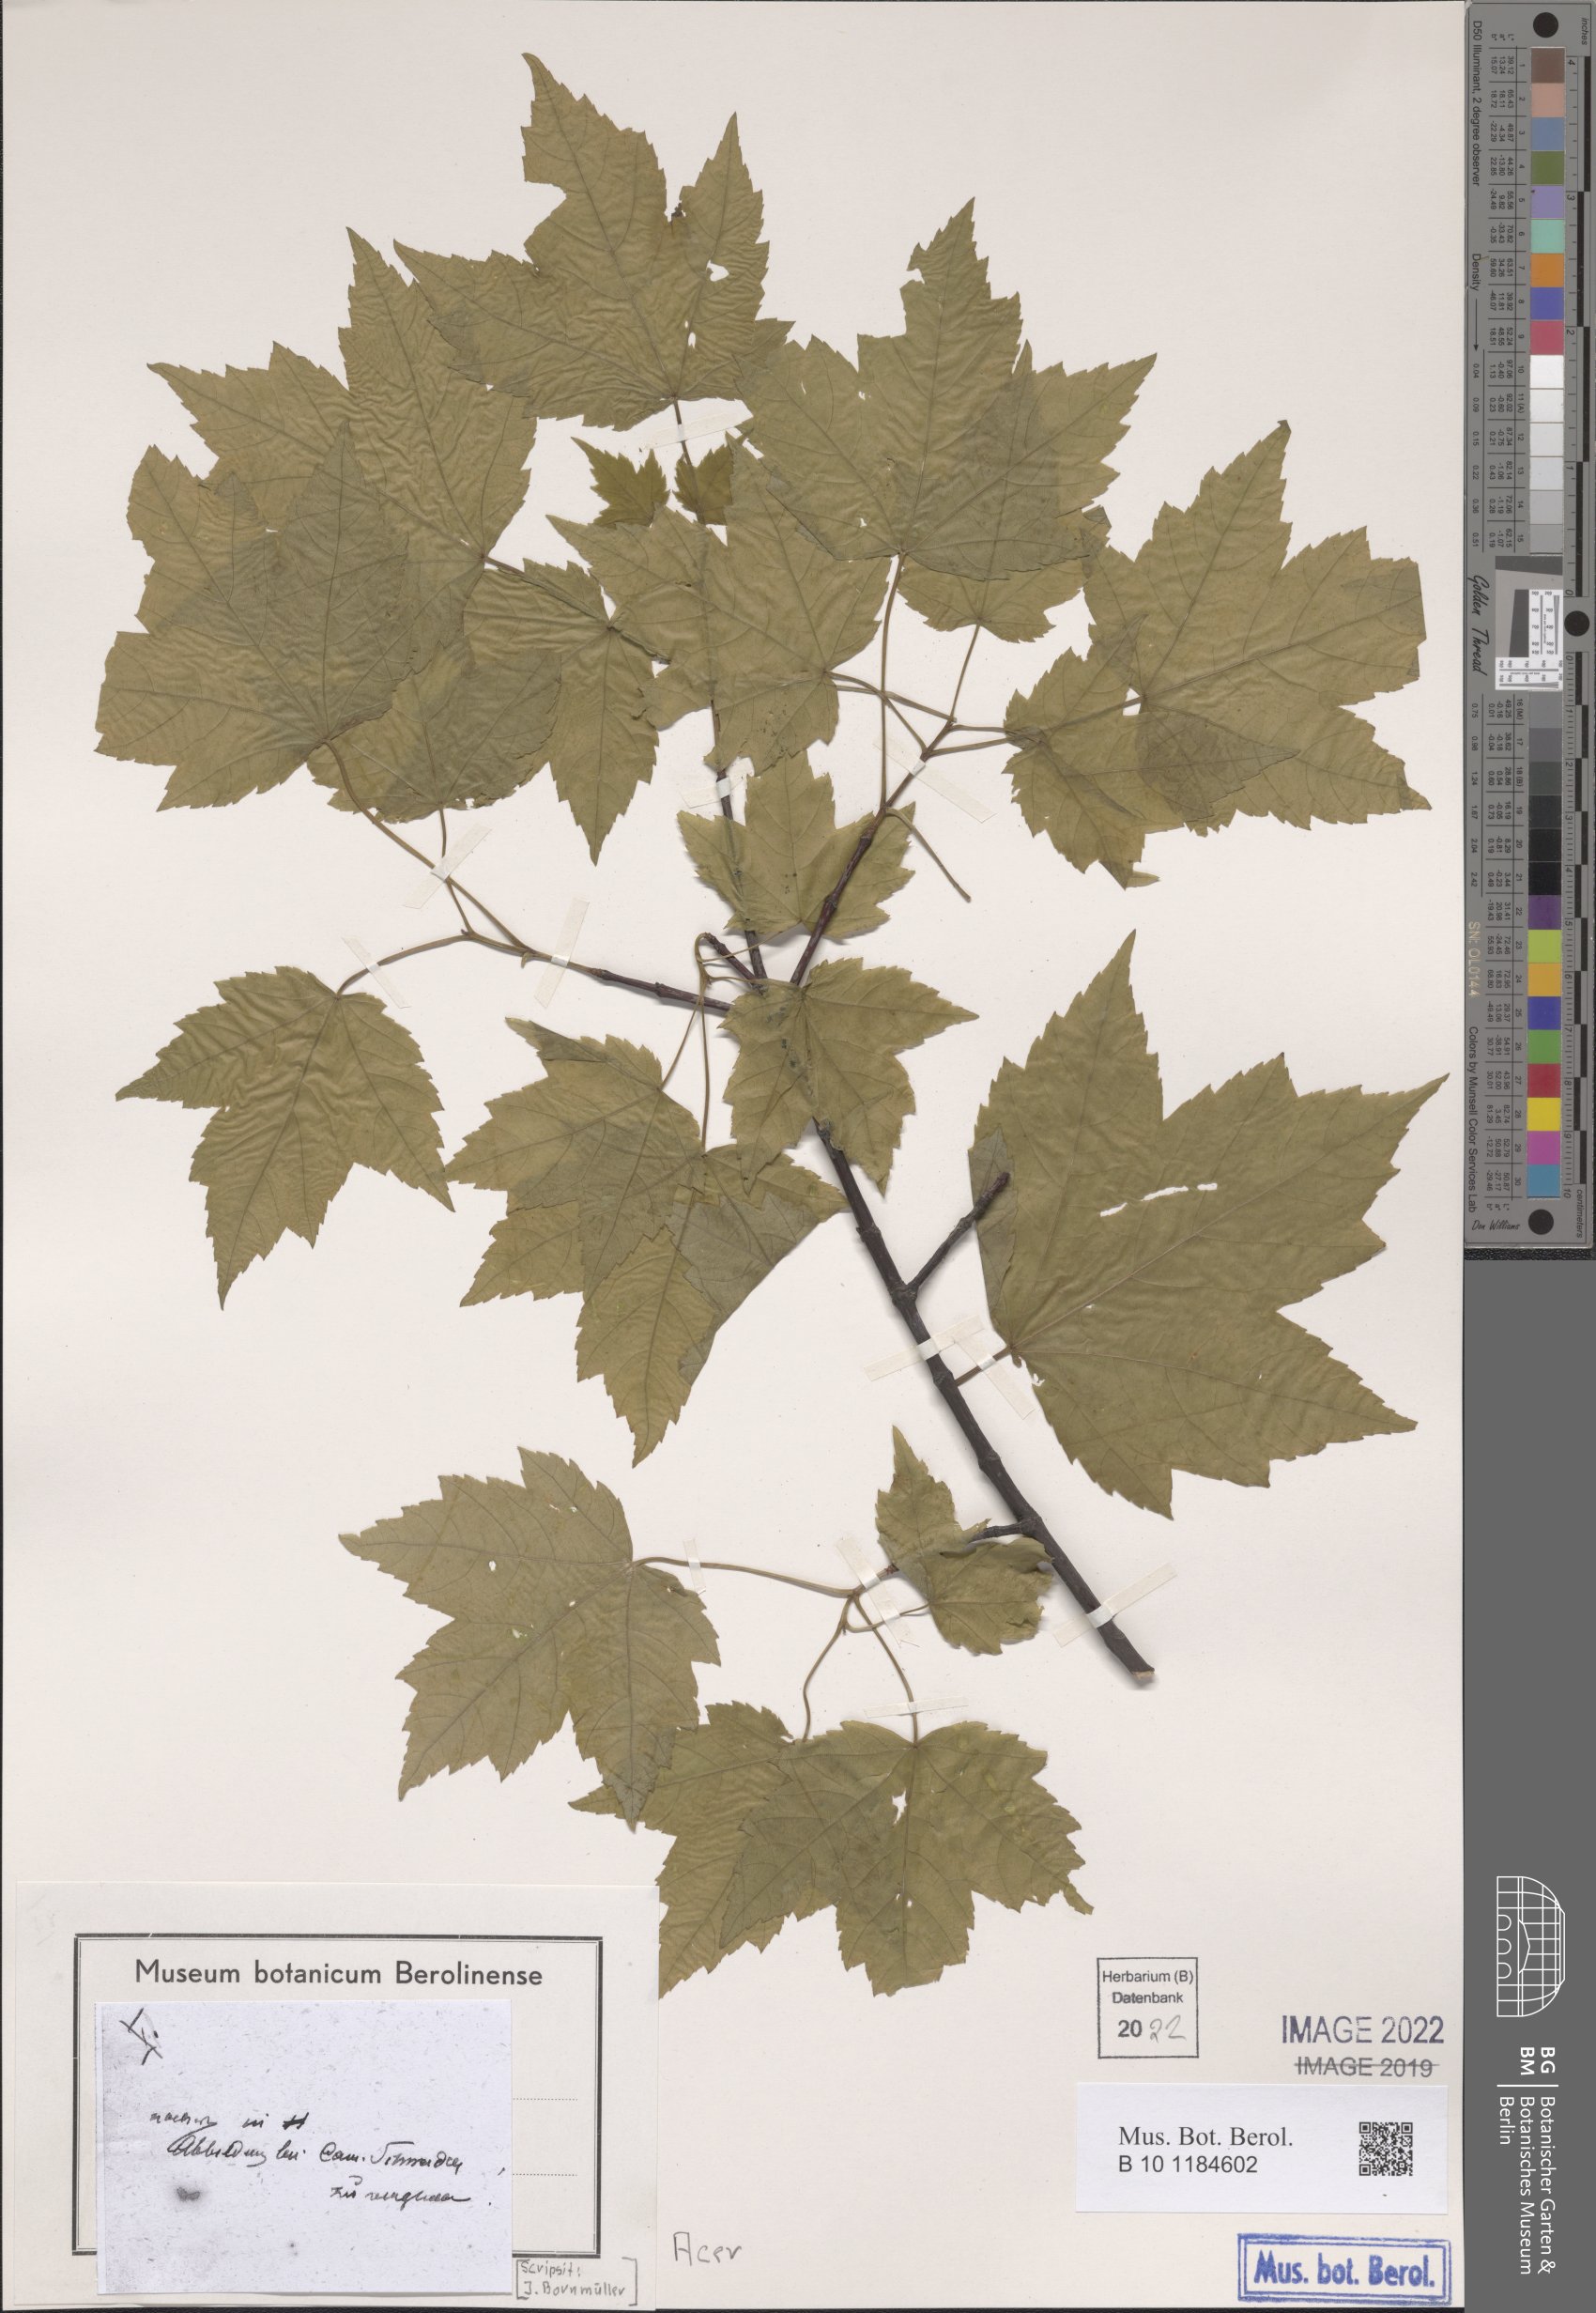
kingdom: Plantae
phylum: Tracheophyta
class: Magnoliopsida
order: Sapindales
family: Sapindaceae
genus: Acer
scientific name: Acer
